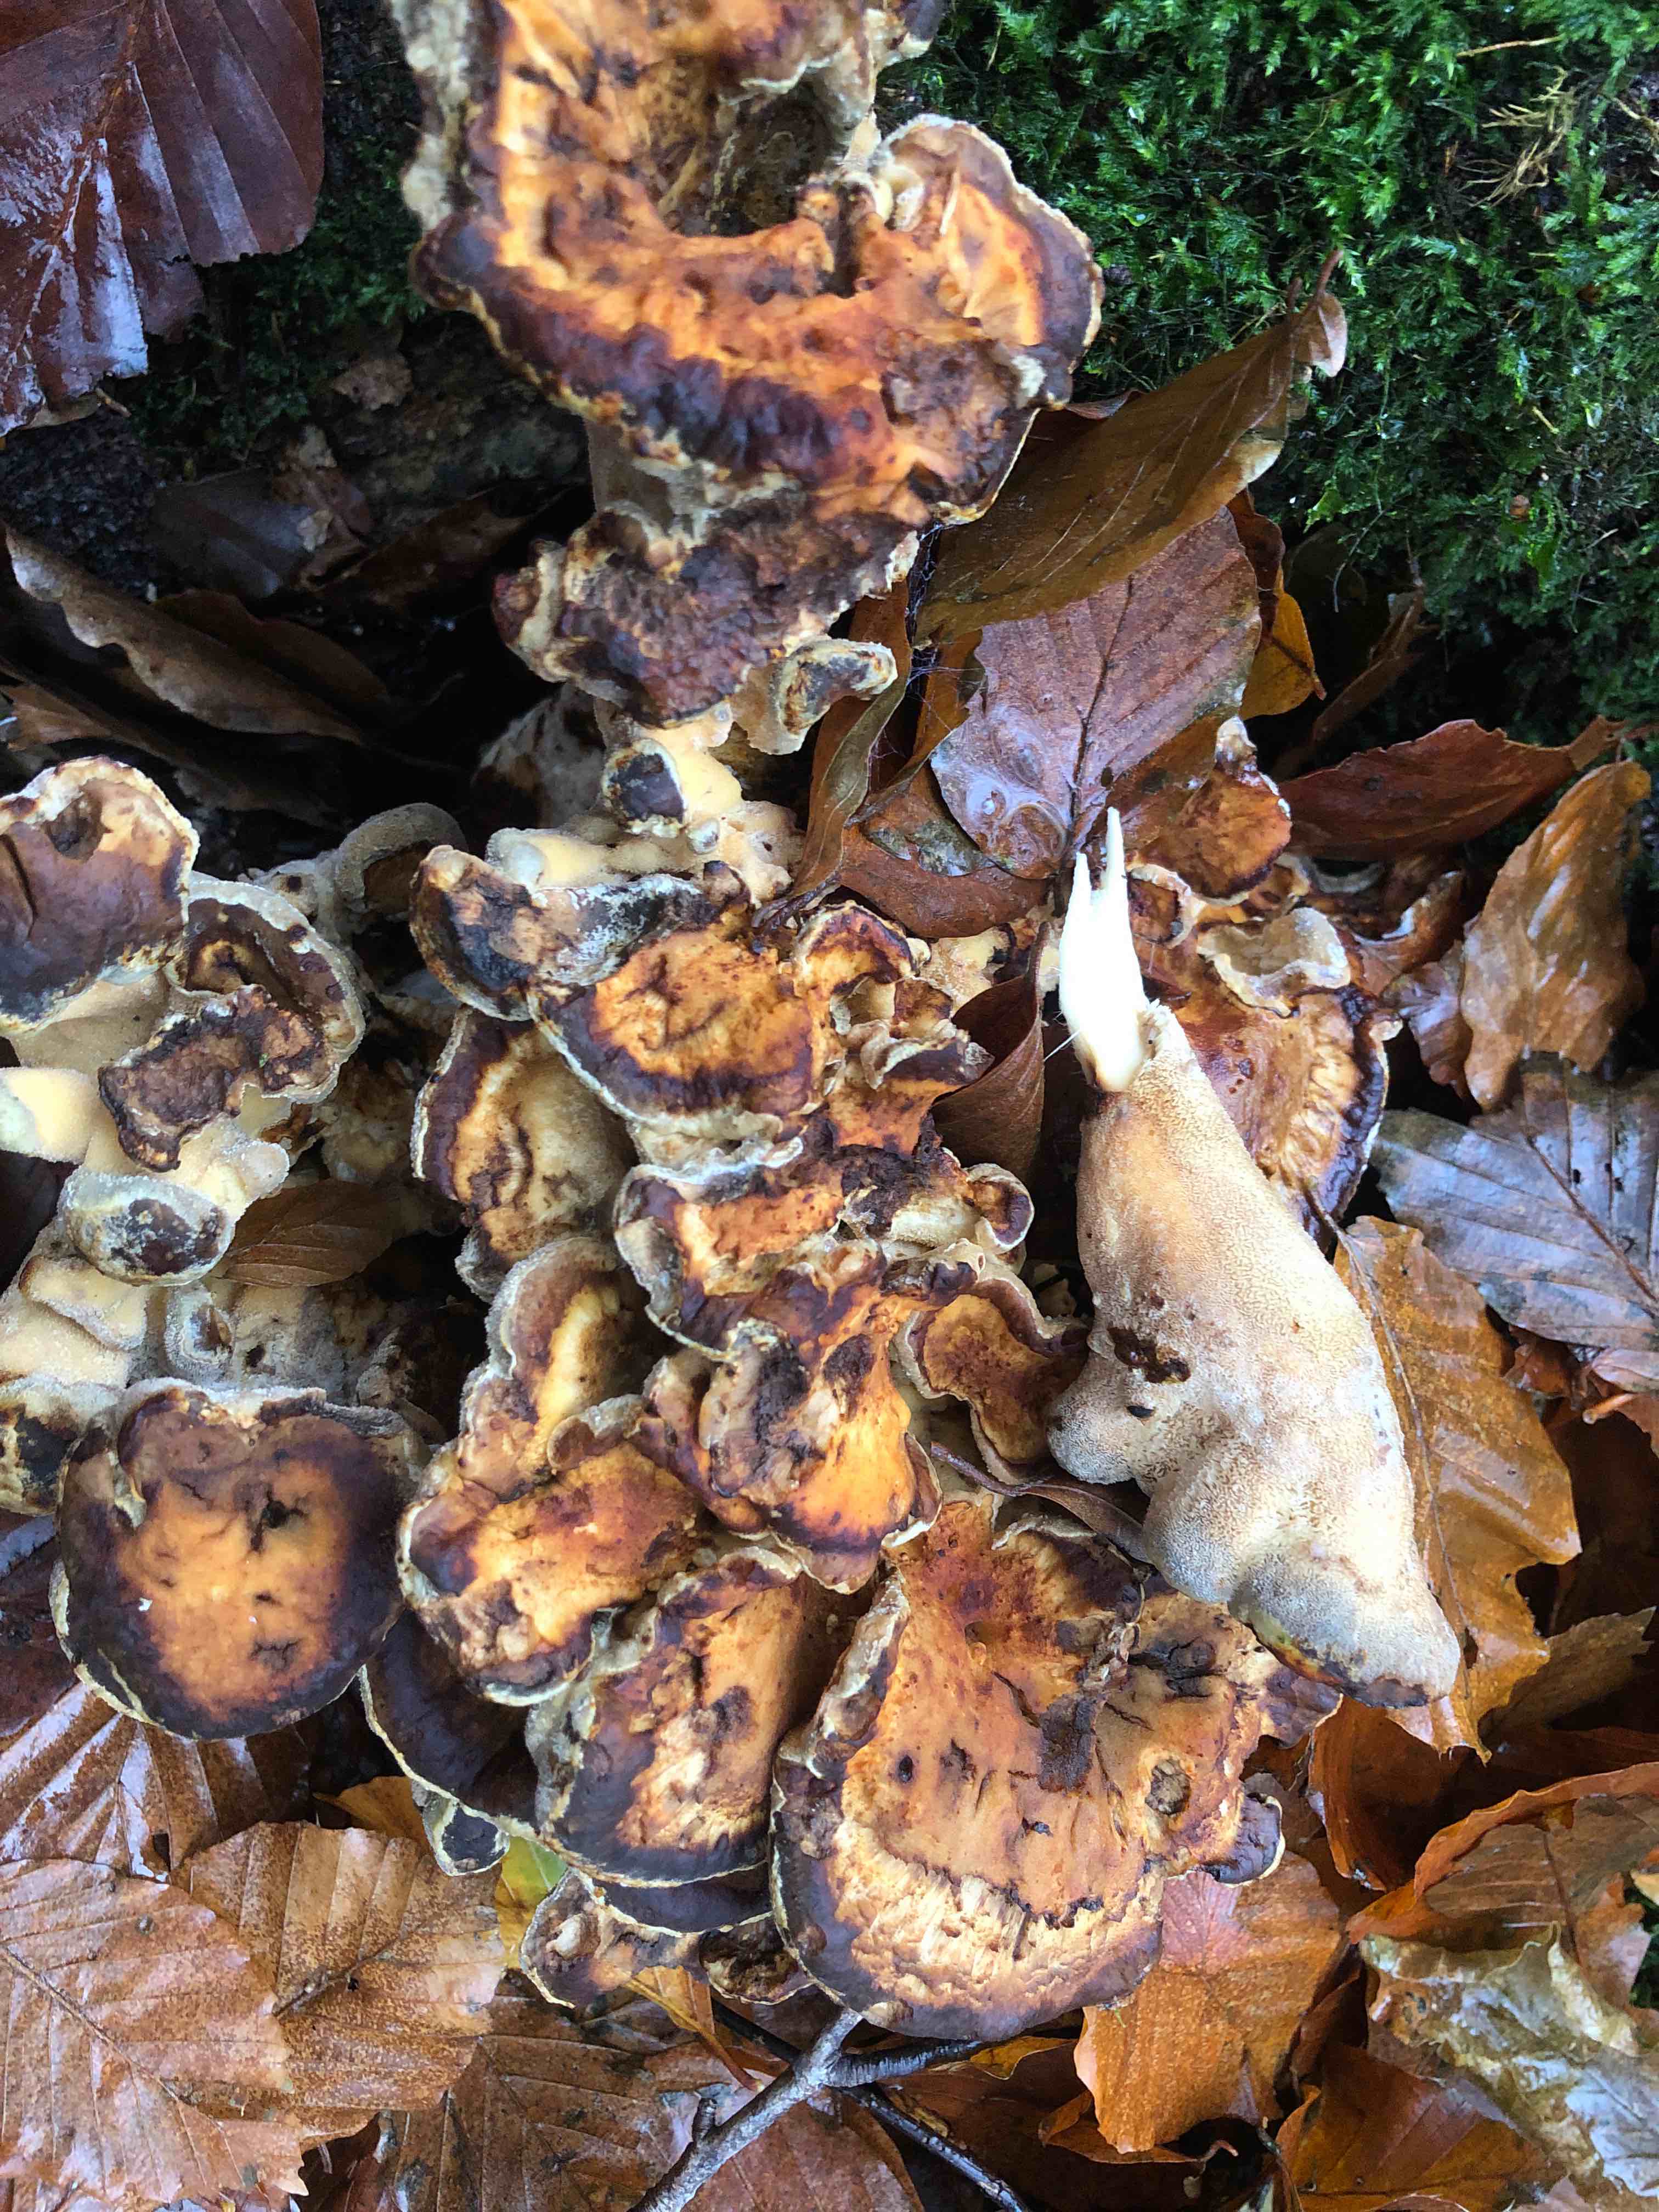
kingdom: Fungi
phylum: Basidiomycota
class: Agaricomycetes
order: Polyporales
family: Meripilaceae
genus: Meripilus
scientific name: Meripilus giganteus
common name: kæmpeporesvamp
